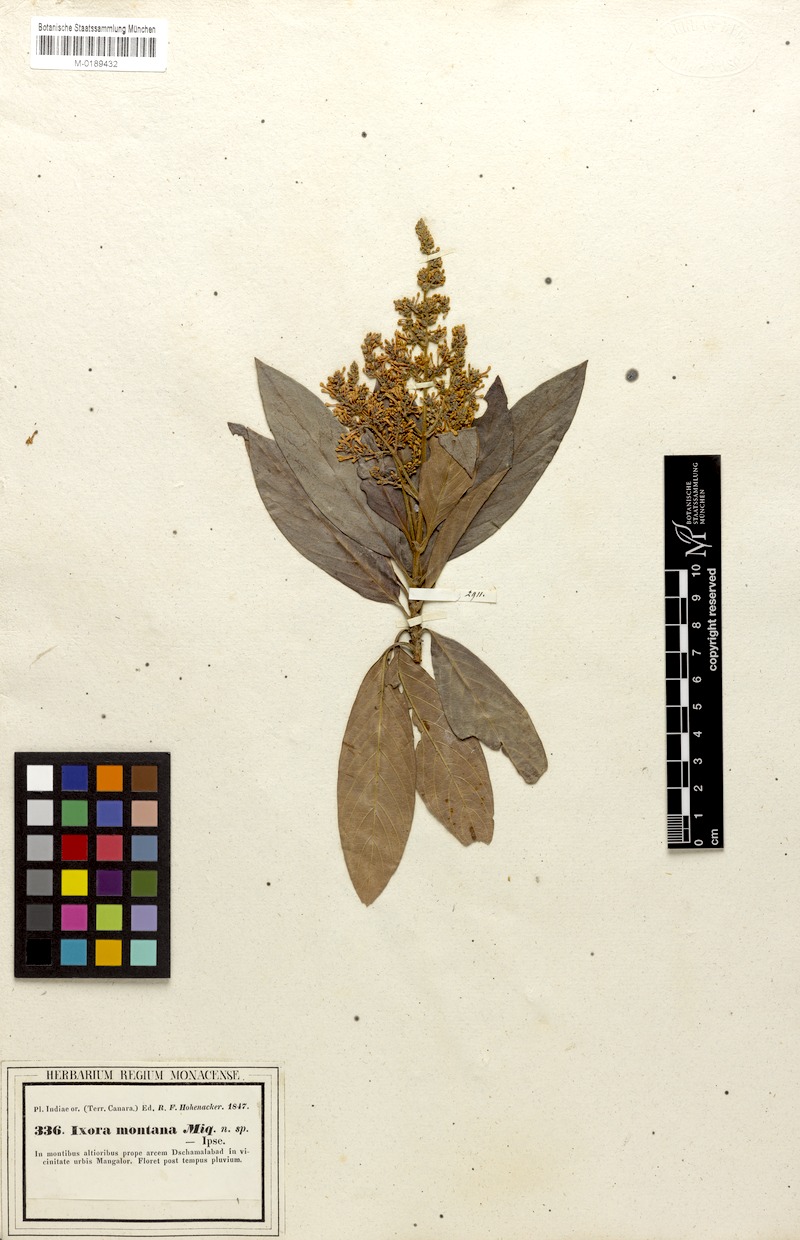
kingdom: Plantae
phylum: Tracheophyta
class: Magnoliopsida
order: Gentianales
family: Rubiaceae
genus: Wendlandia
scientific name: Wendlandia thyrsoidea
